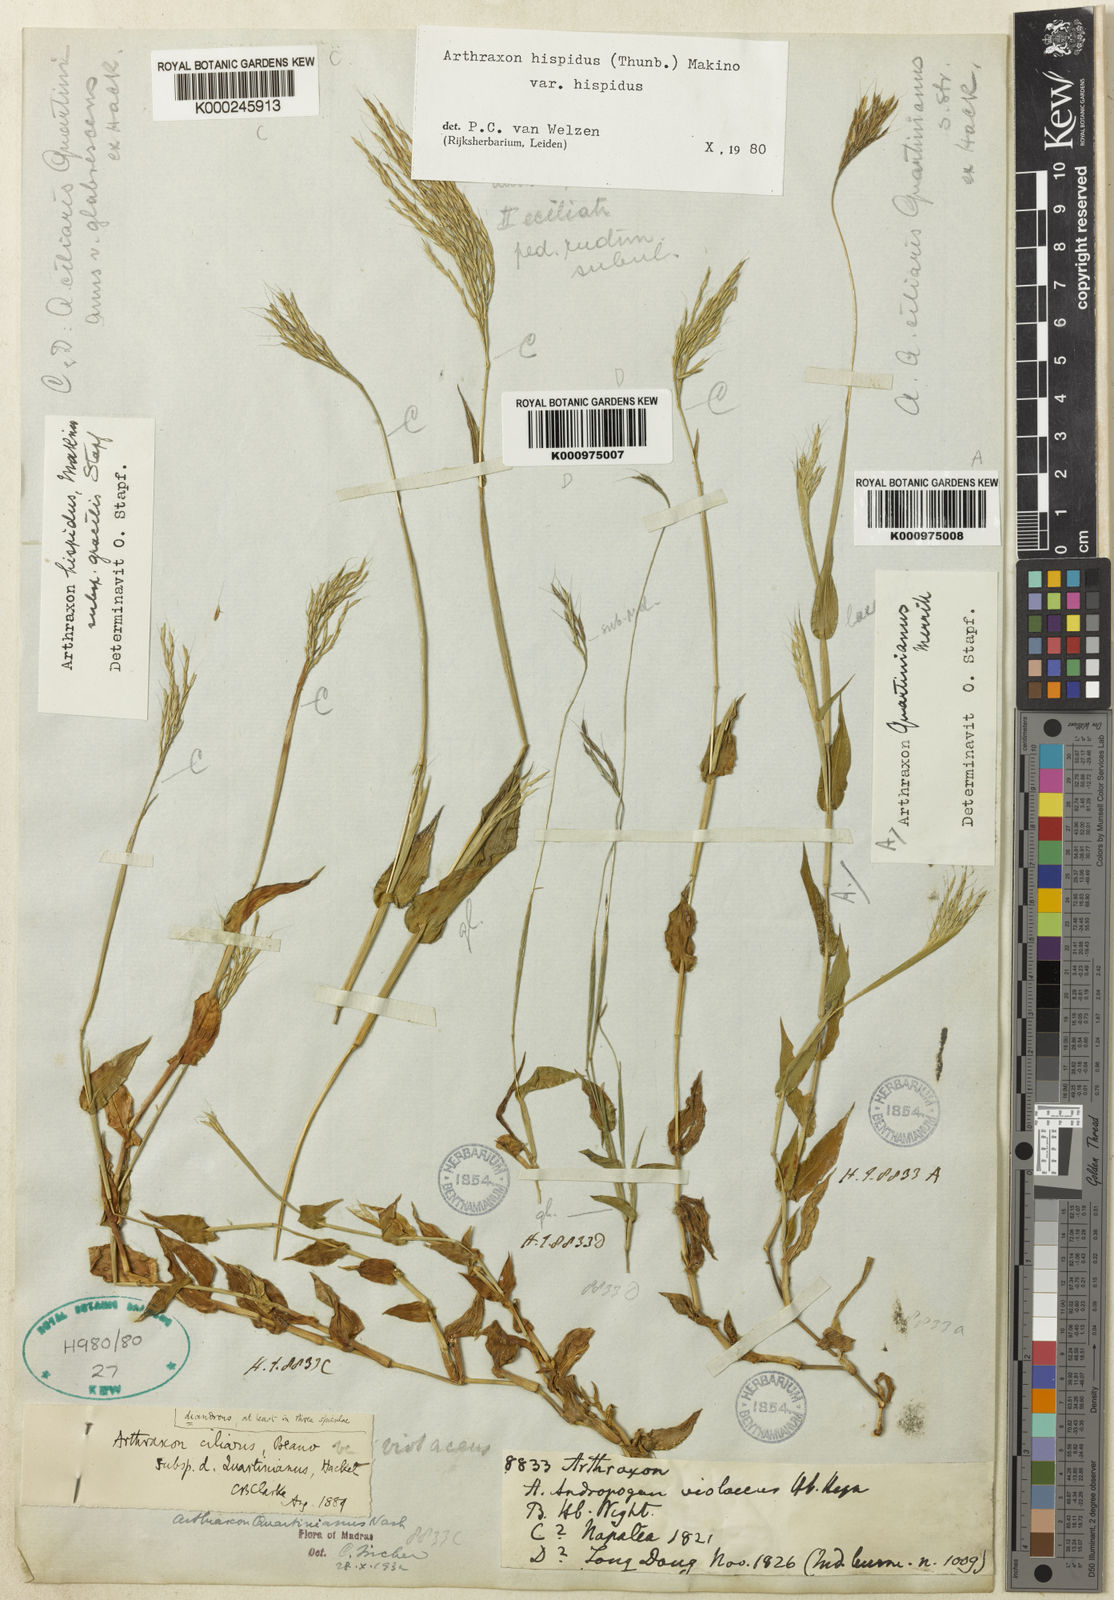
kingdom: Plantae
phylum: Tracheophyta
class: Liliopsida
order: Poales
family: Poaceae
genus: Arthraxon
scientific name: Arthraxon hispidus
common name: Small carpgrass
